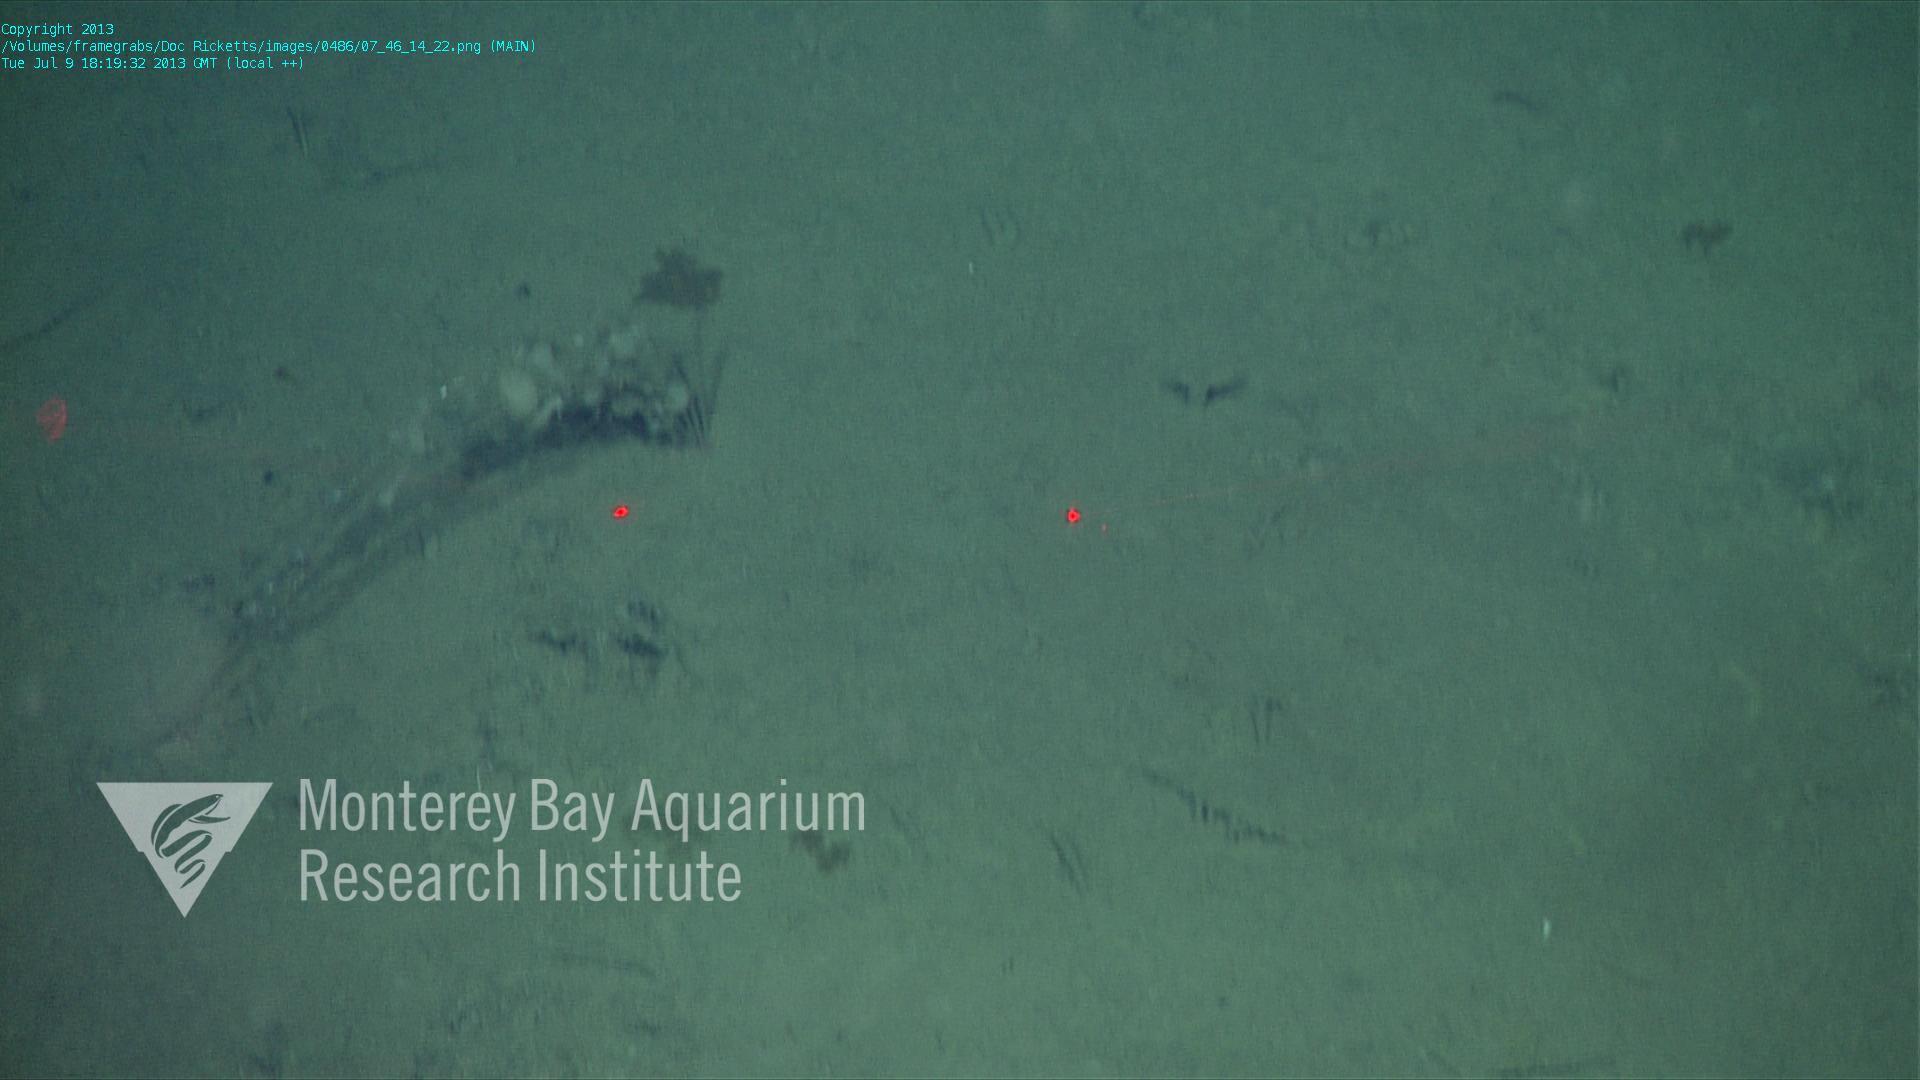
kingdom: Animalia
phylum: Porifera
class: Hexactinellida
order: Lyssacinosida
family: Rossellidae
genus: Bathydorus
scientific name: Bathydorus spinosus
